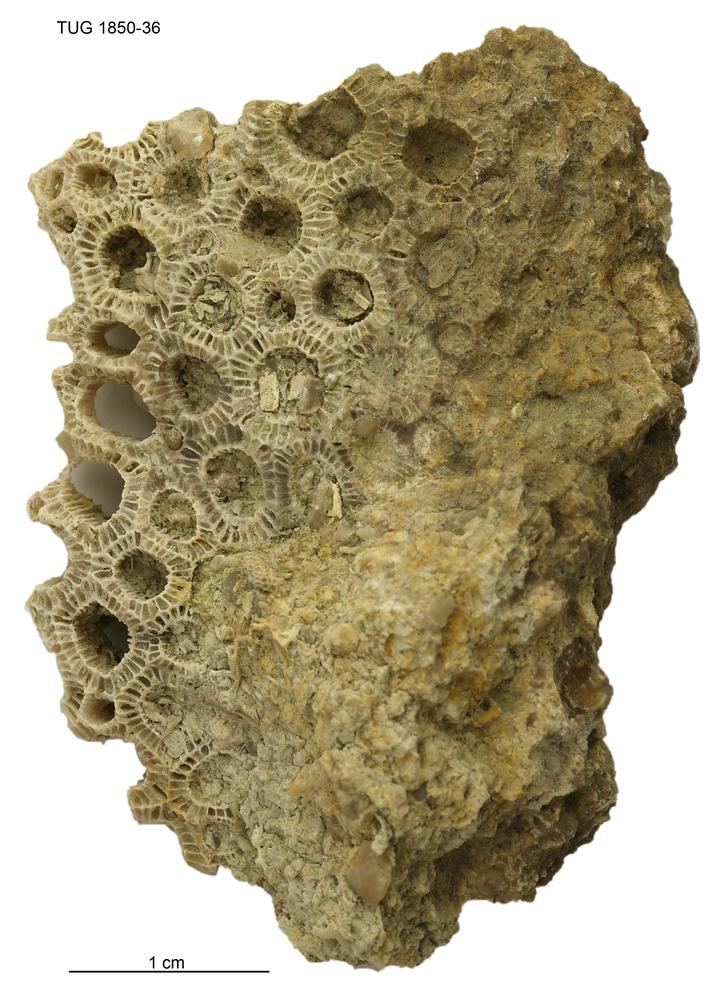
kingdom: Animalia
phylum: Cnidaria
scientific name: Cnidaria
